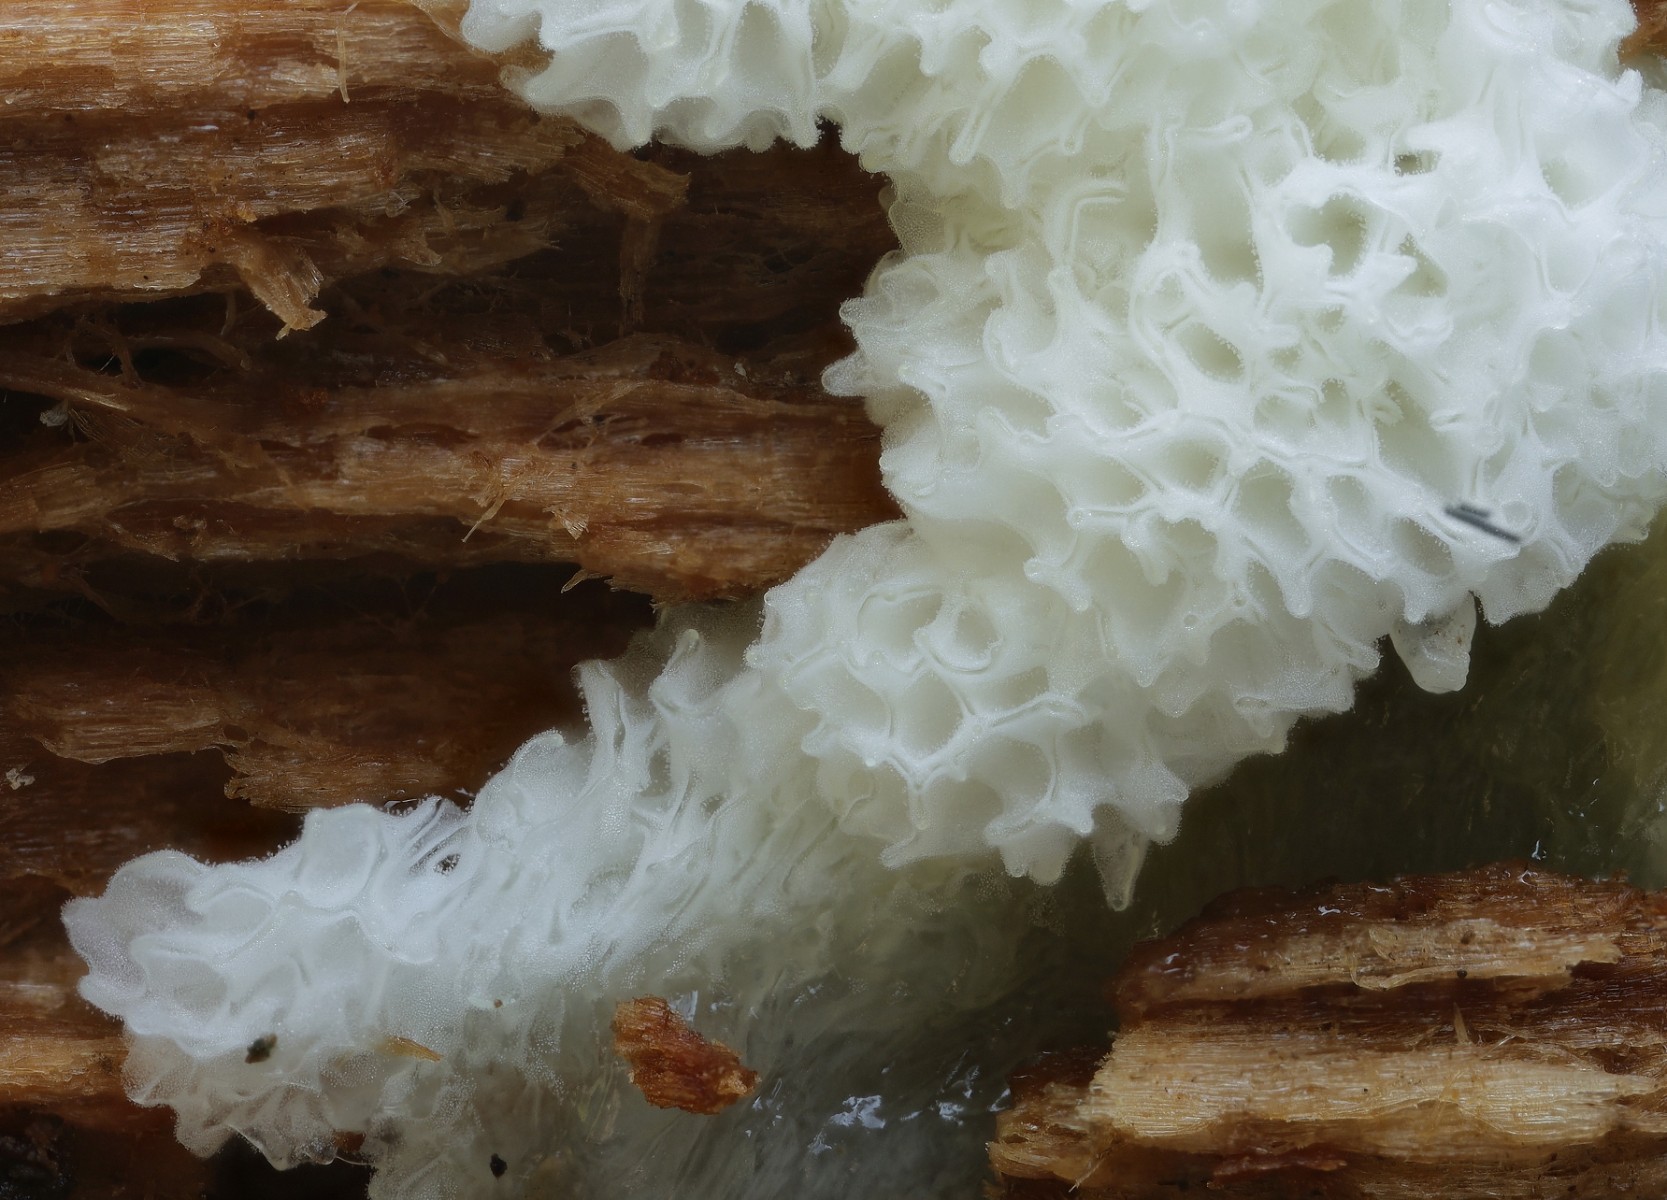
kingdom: Protozoa
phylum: Mycetozoa
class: Protosteliomycetes
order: Ceratiomyxales
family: Ceratiomyxaceae
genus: Ceratiomyxa
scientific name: Ceratiomyxa fruticulosa
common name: Honeycomb coral slime mold
